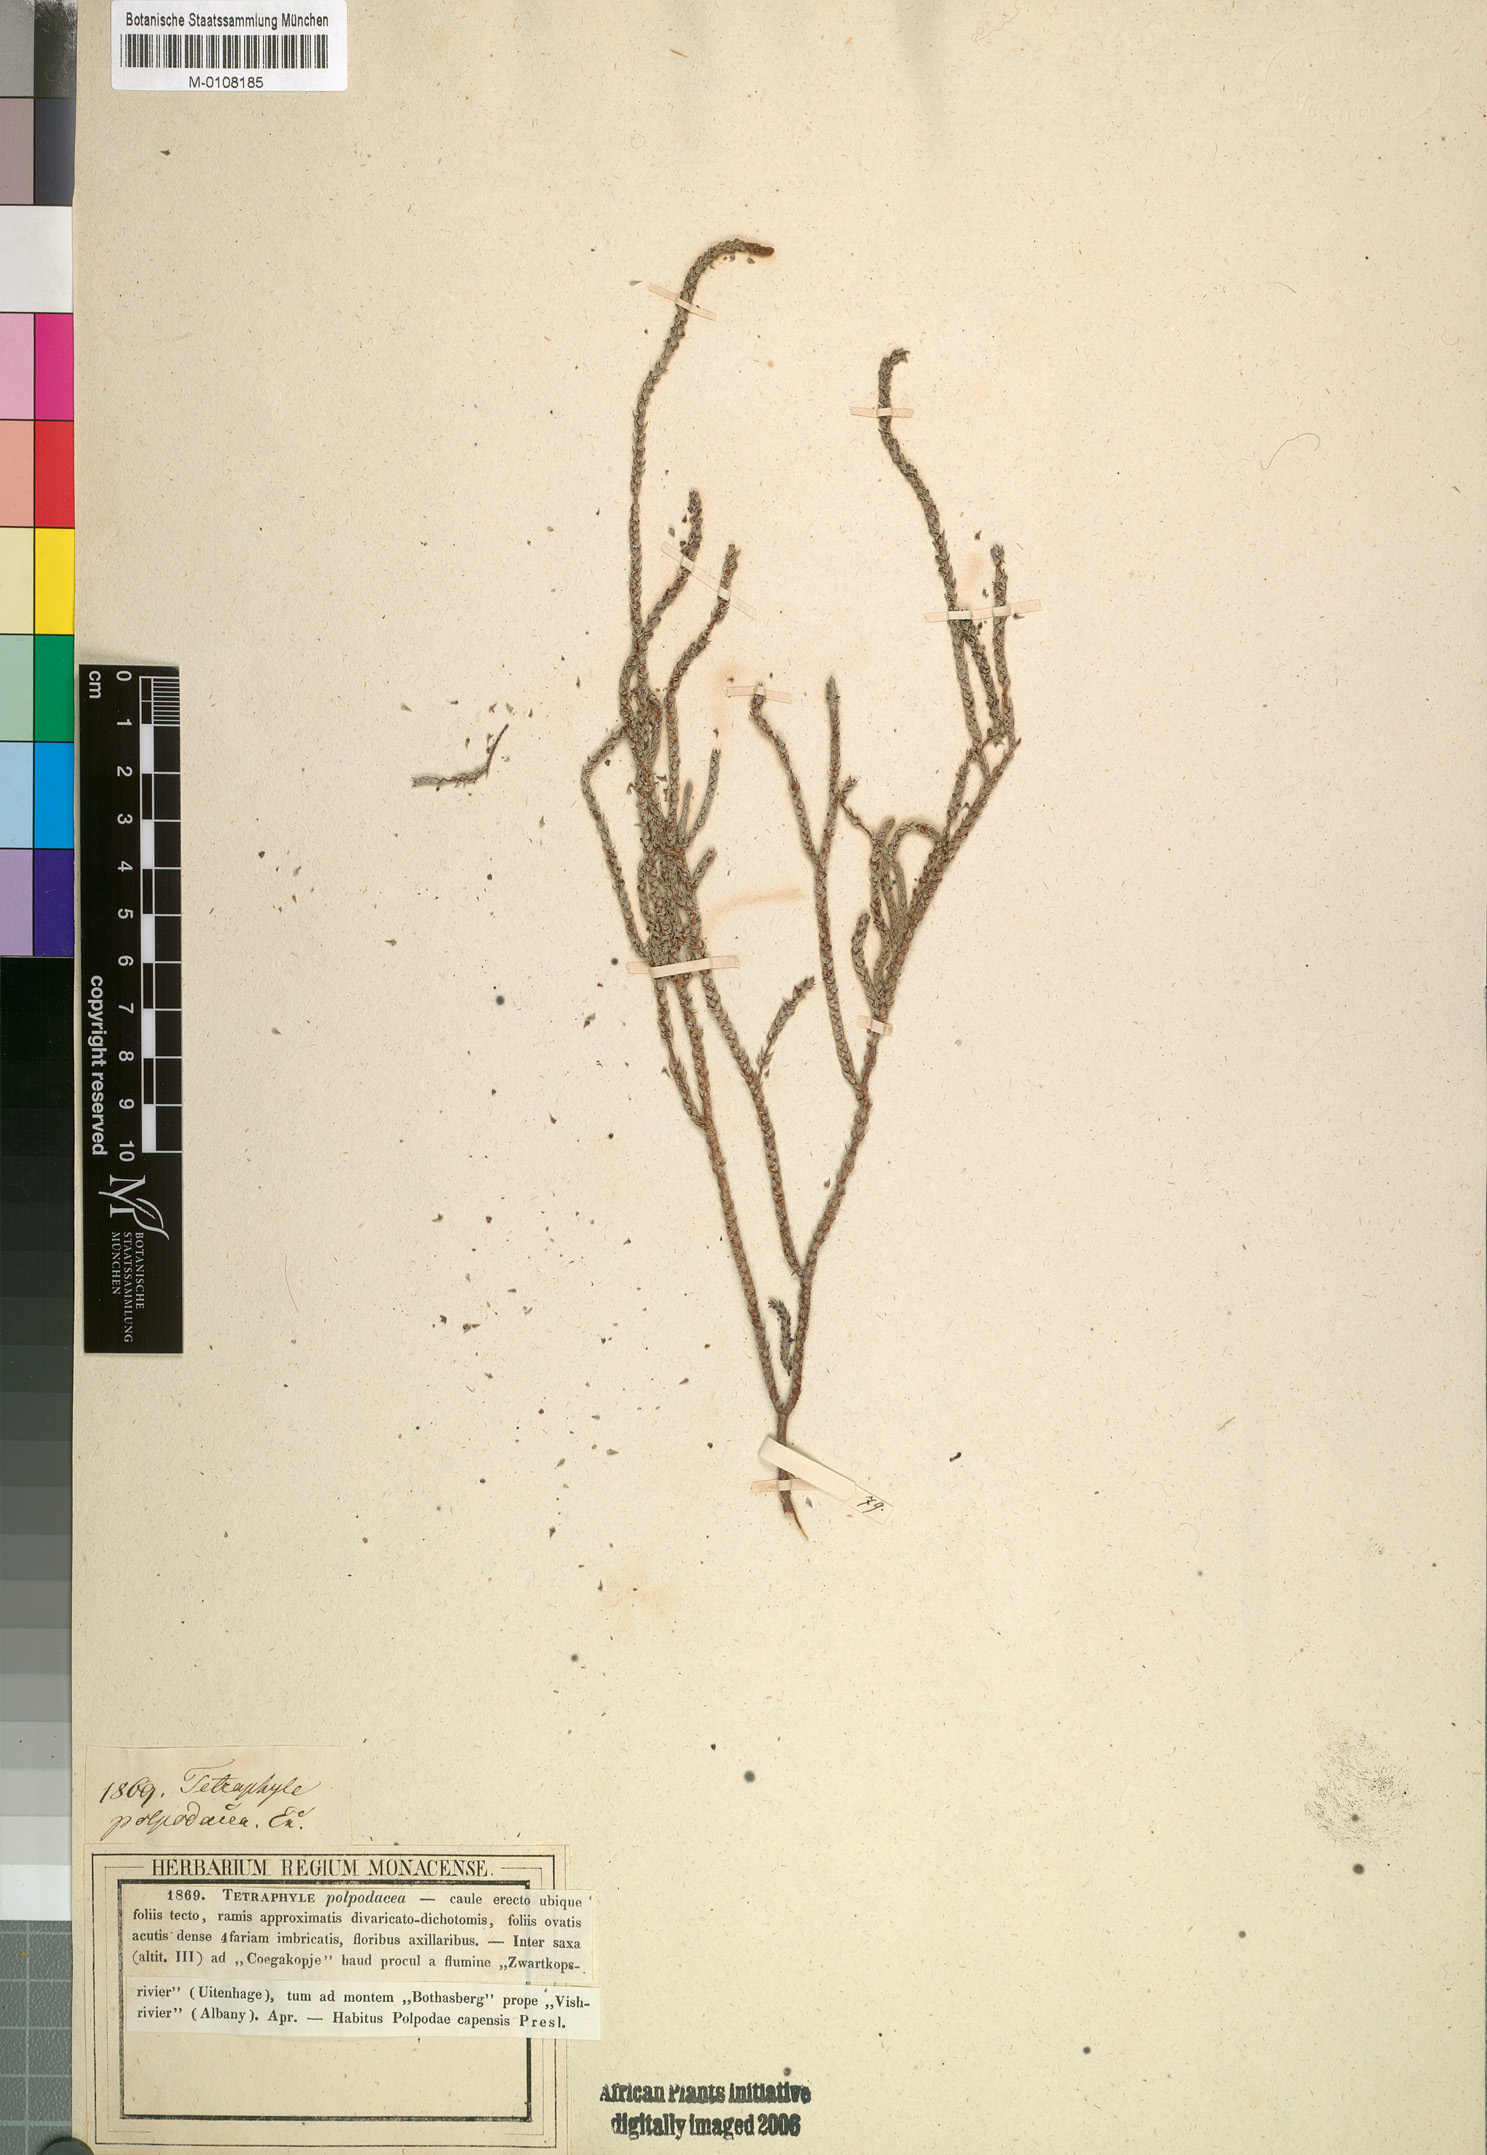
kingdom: Plantae
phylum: Tracheophyta
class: Magnoliopsida
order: Saxifragales
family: Crassulaceae
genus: Crassula
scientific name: Crassula muscosa
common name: Toy-cypress
